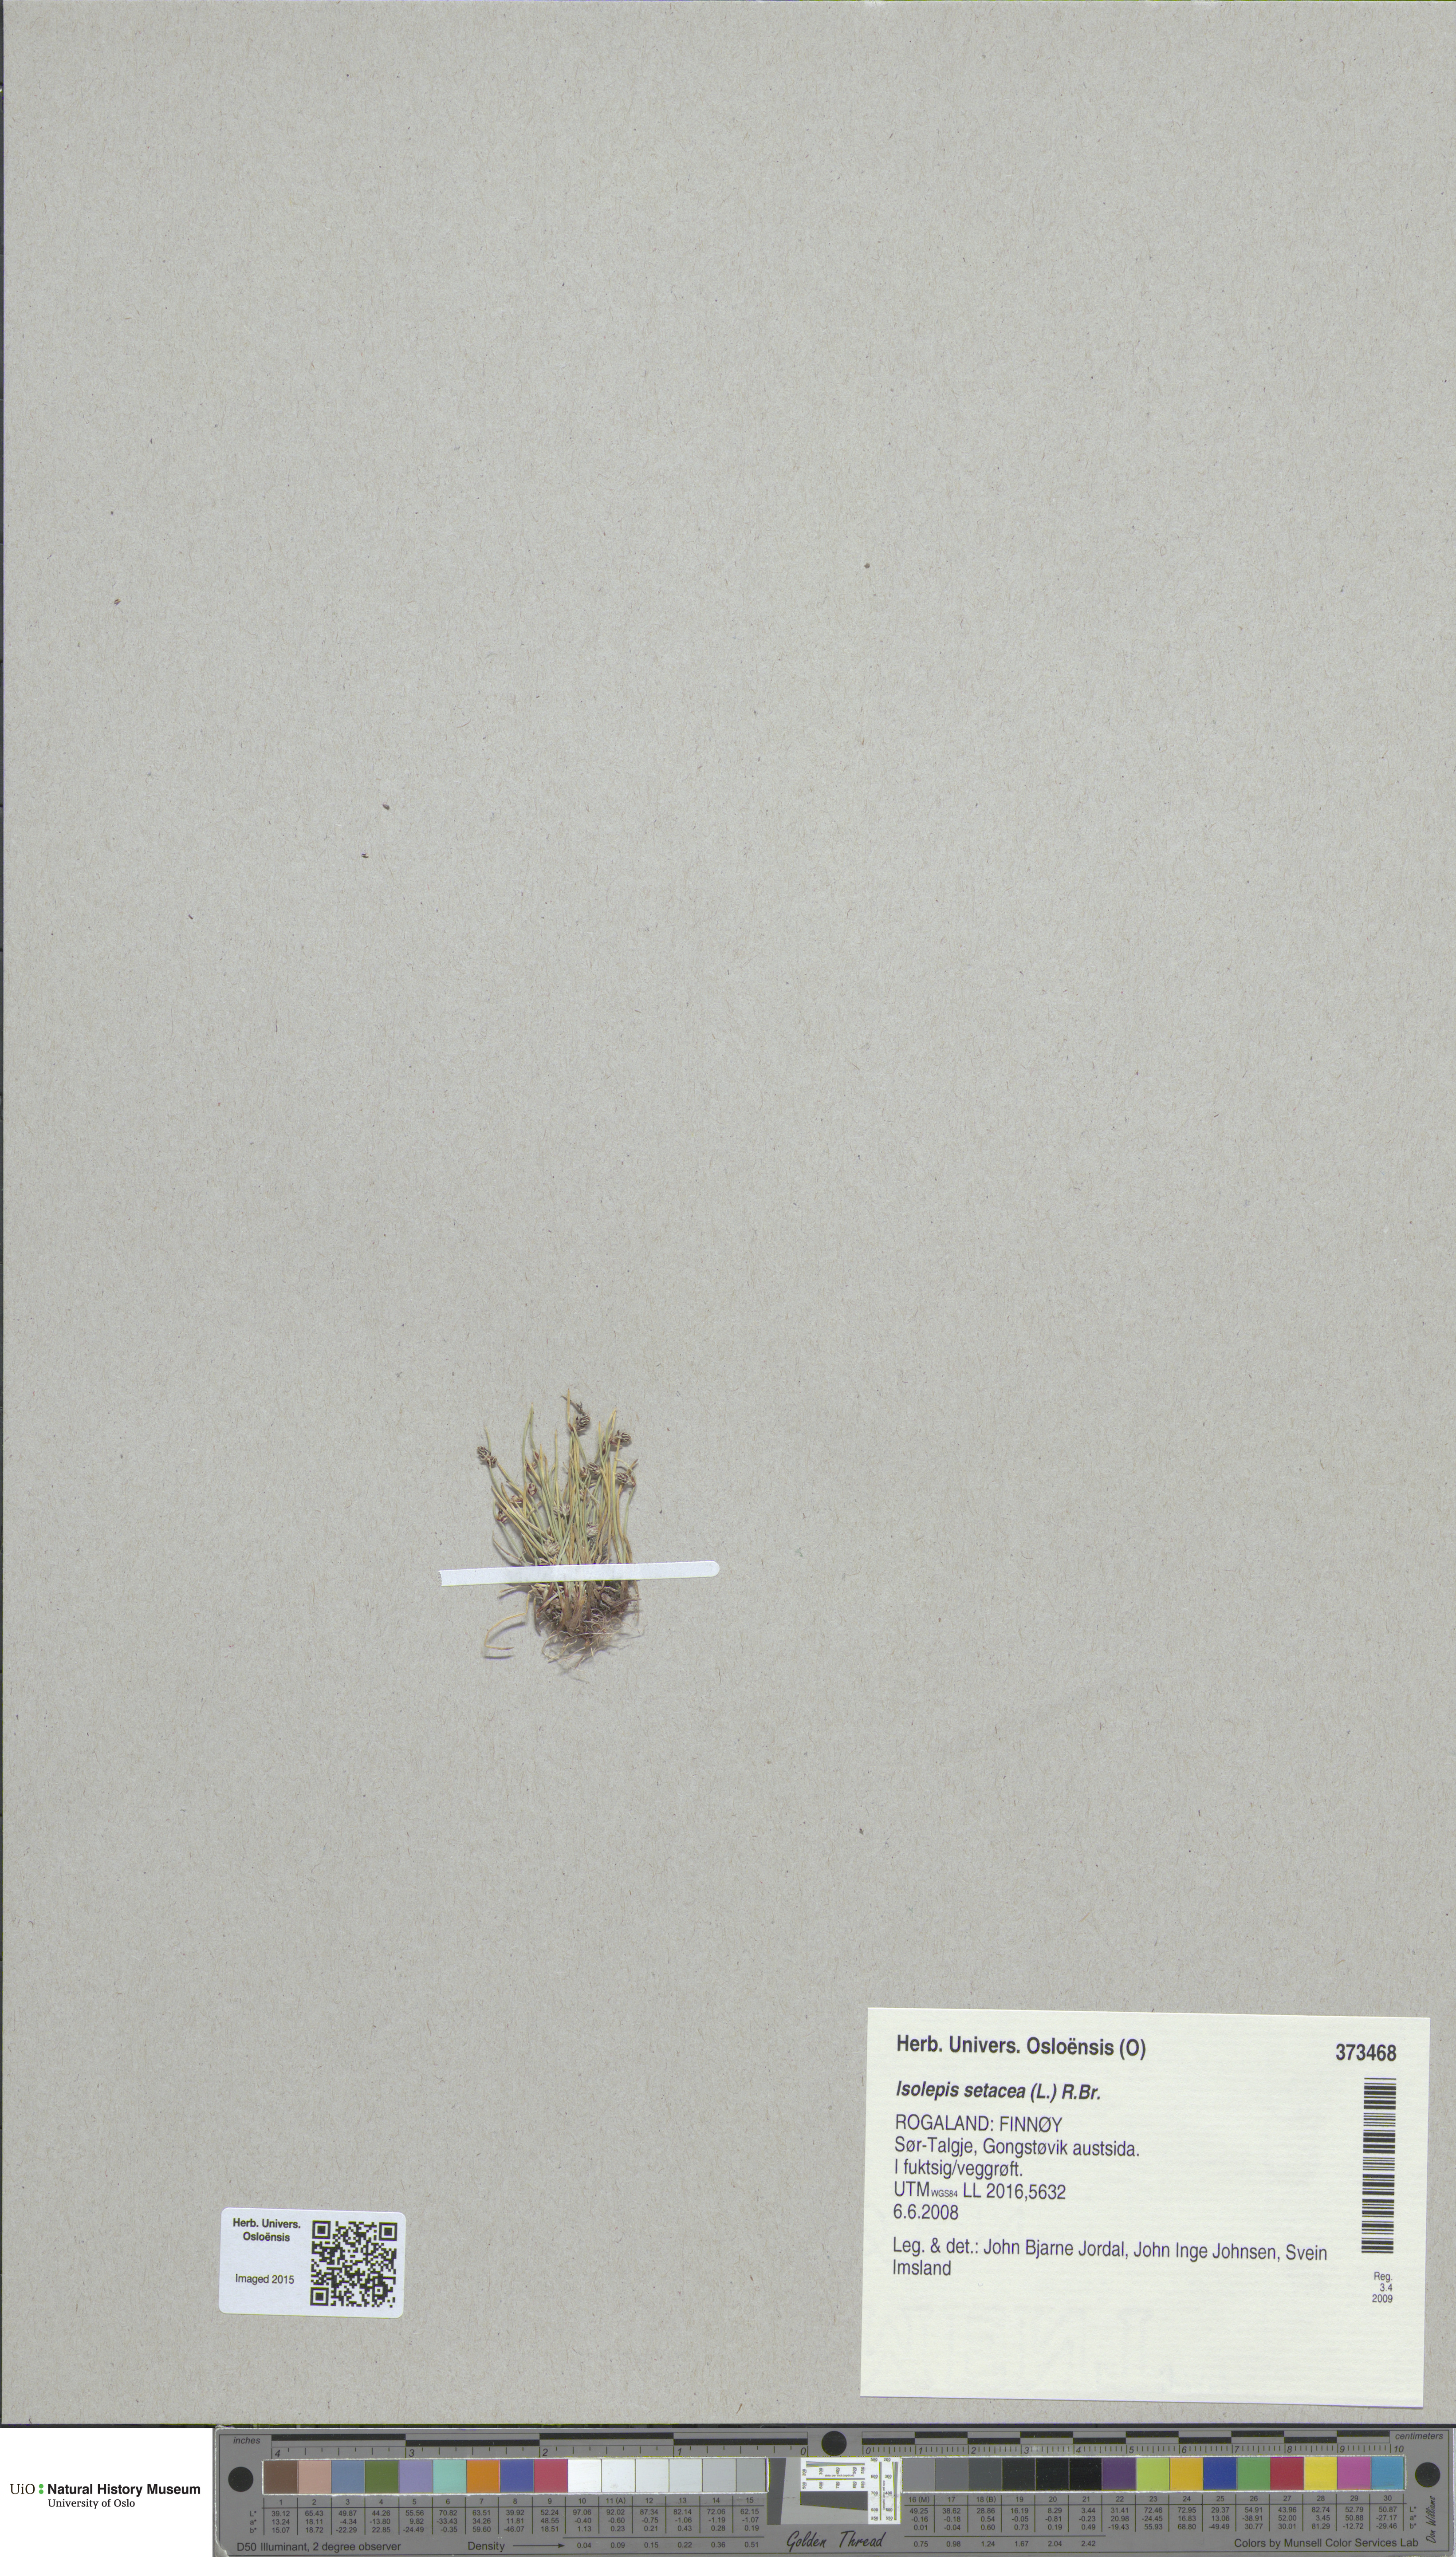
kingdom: Plantae
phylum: Tracheophyta
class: Liliopsida
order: Poales
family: Cyperaceae
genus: Isolepis
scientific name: Isolepis setacea
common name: Bristle club-rush
